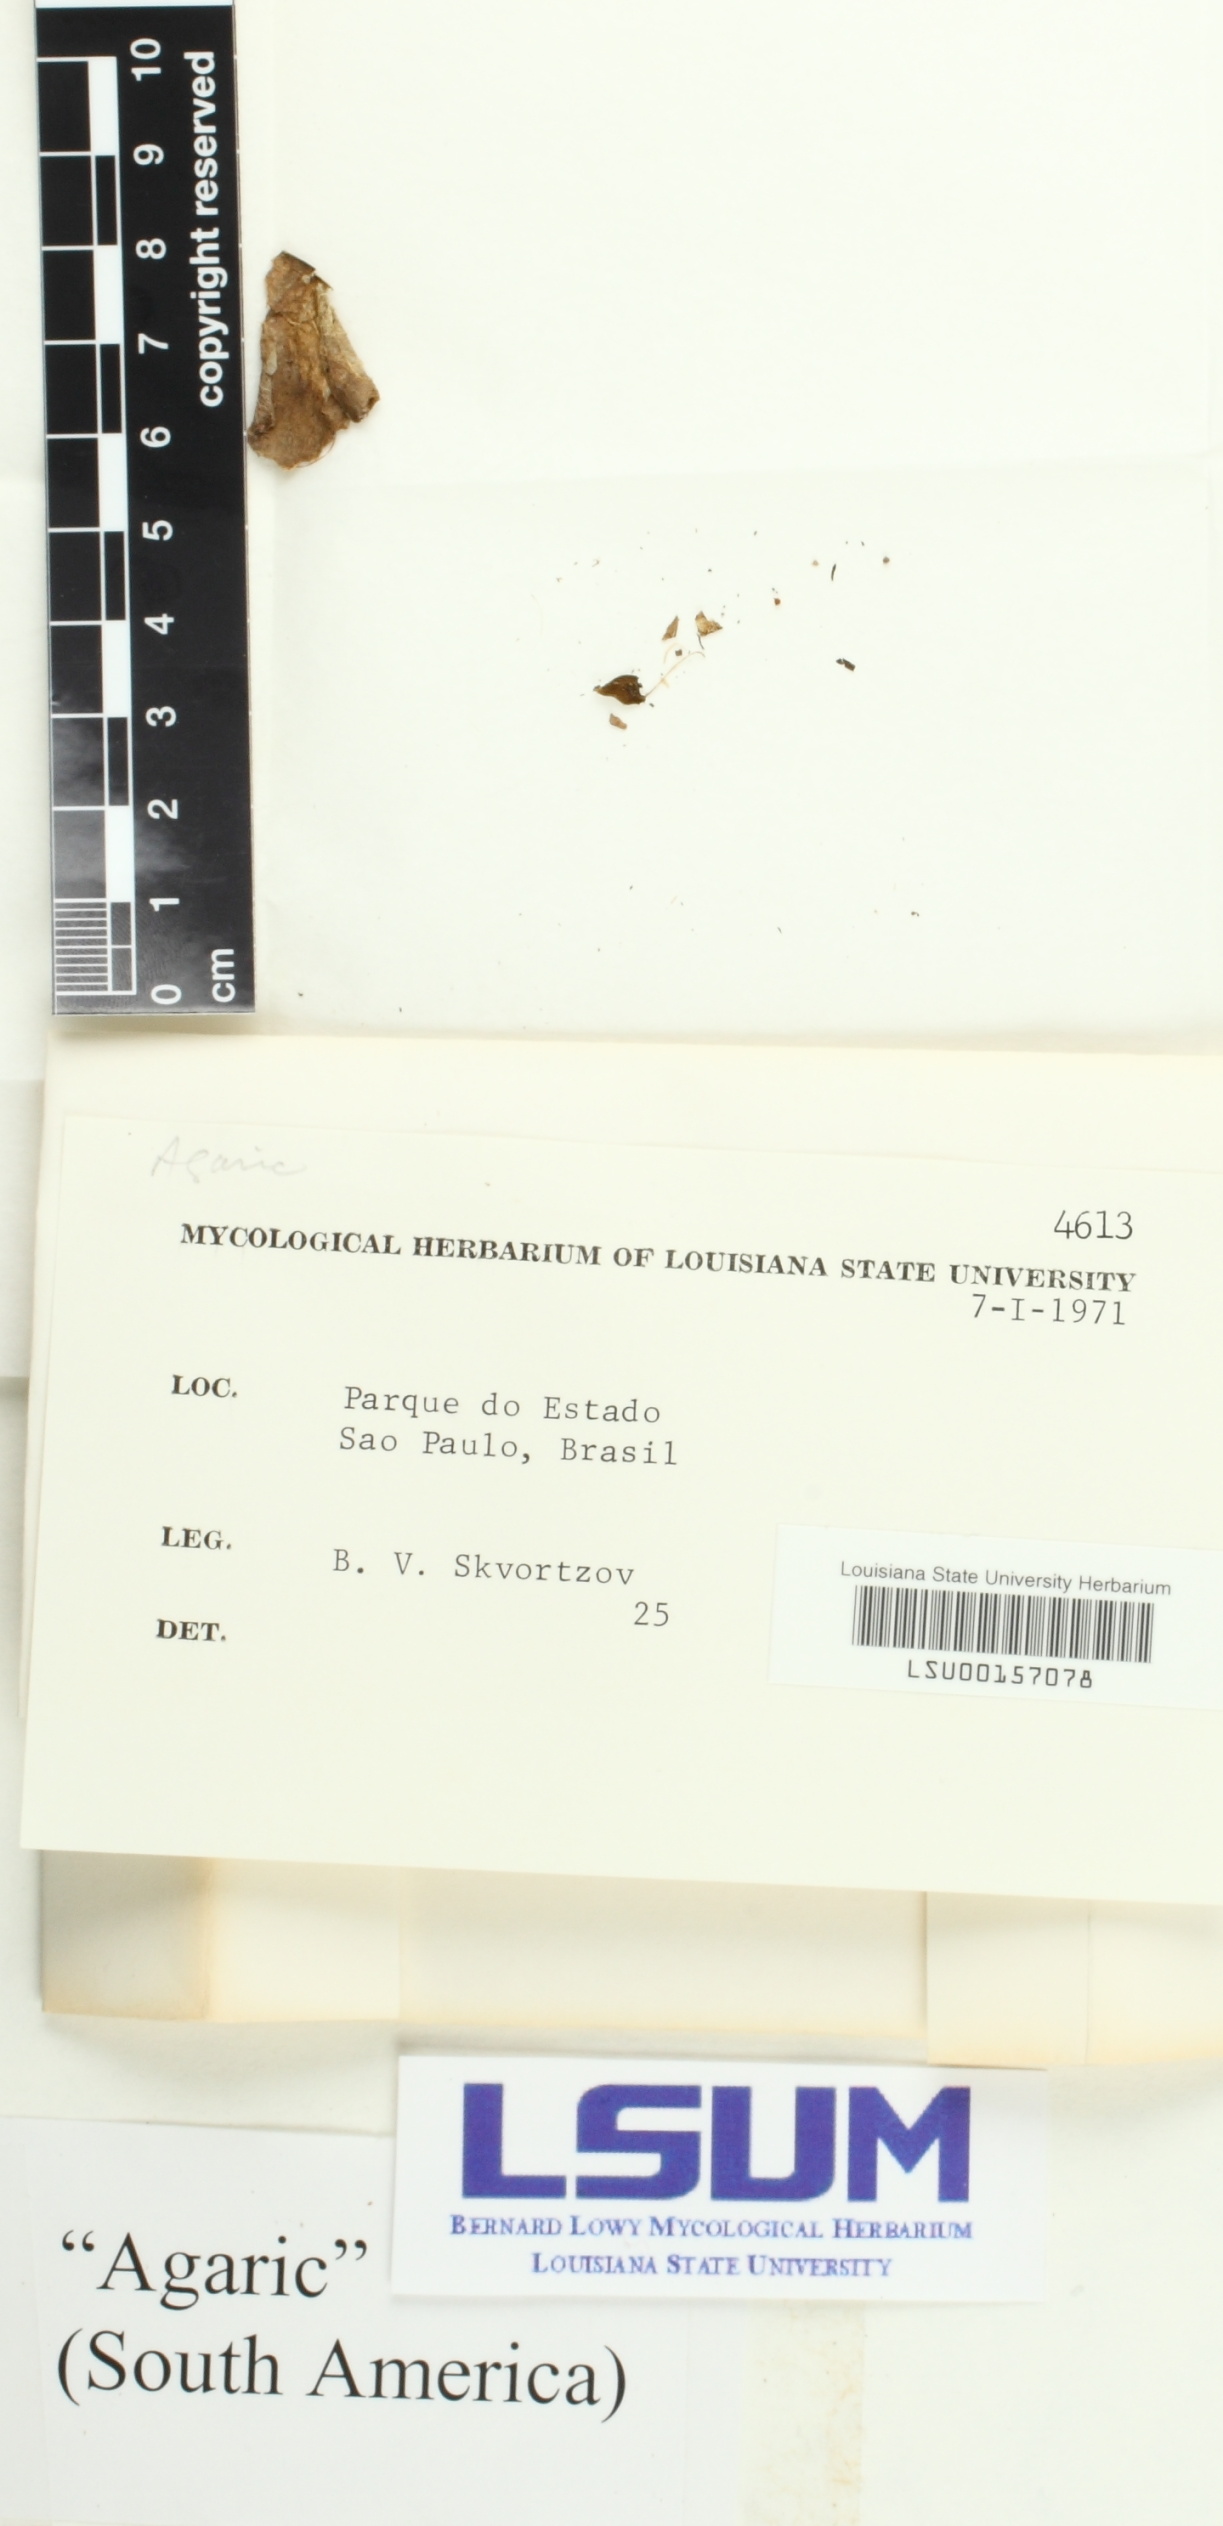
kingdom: Fungi
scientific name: Fungi
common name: Fungi
